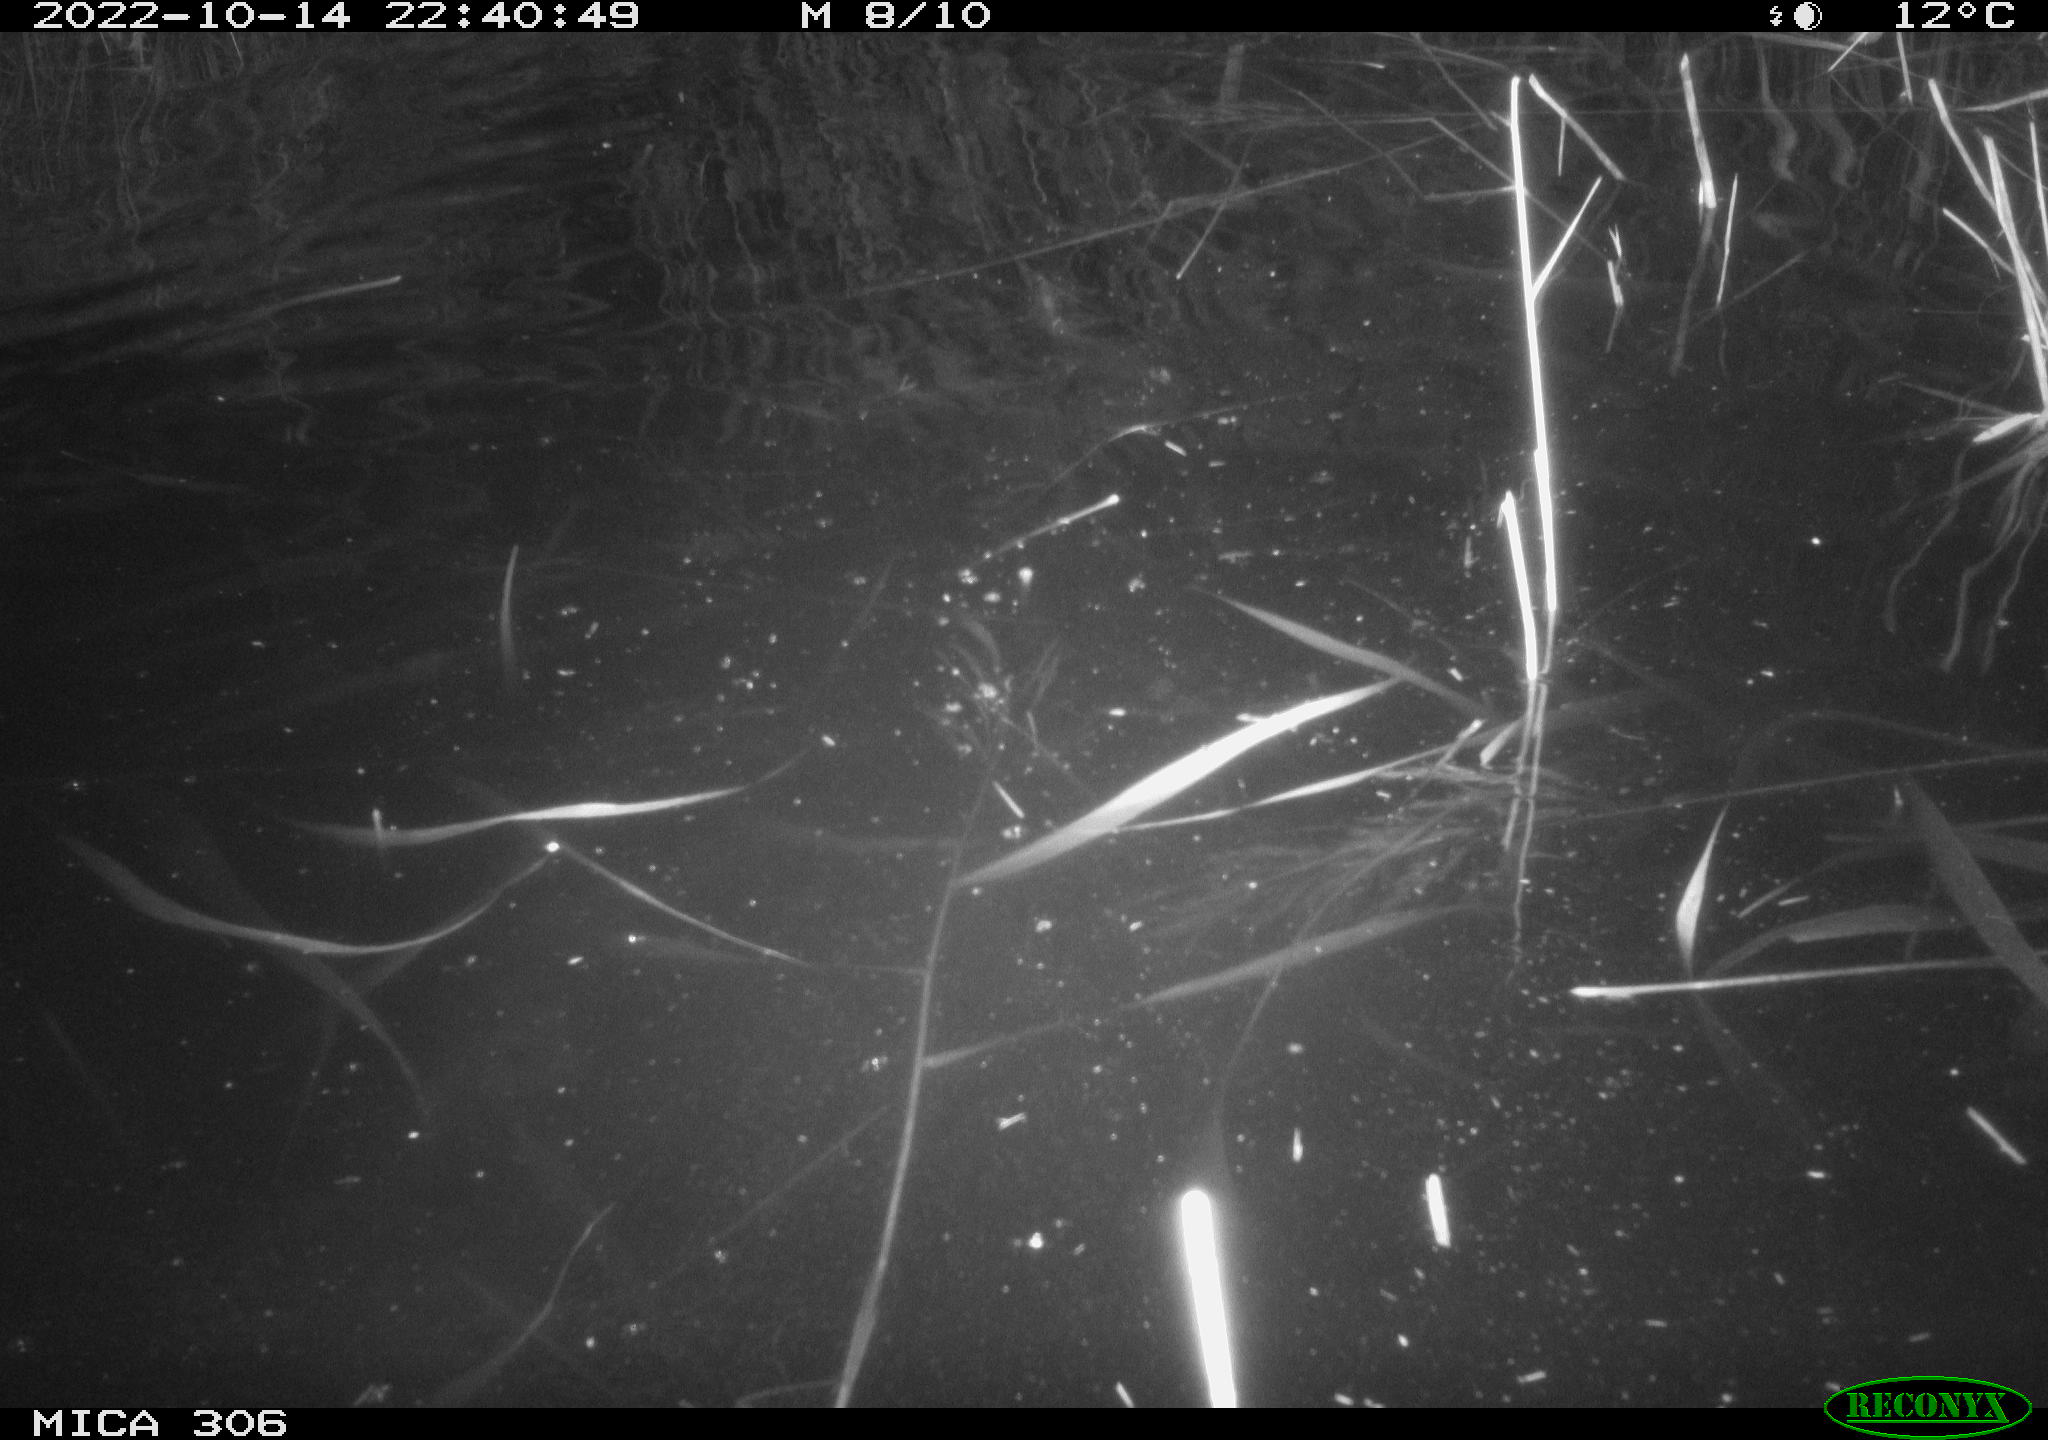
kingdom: Animalia
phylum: Chordata
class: Mammalia
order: Rodentia
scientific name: Rodentia
